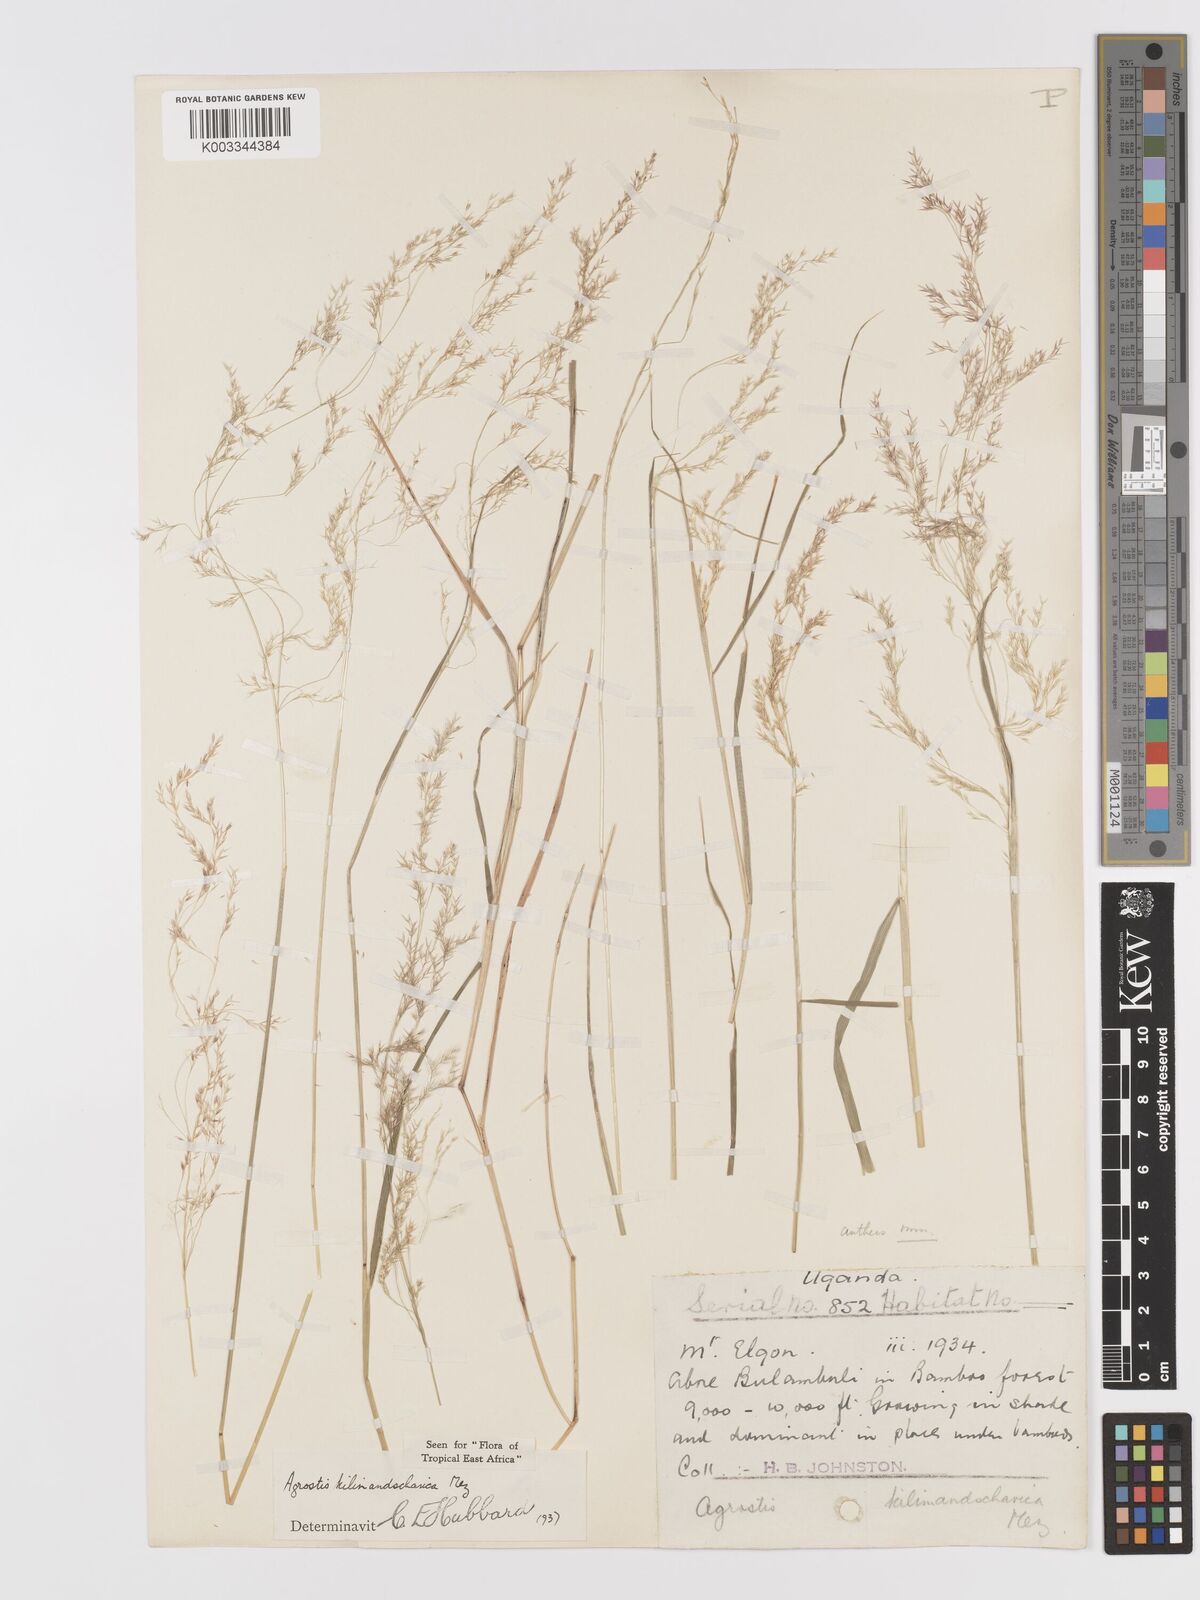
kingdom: Plantae
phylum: Tracheophyta
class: Liliopsida
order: Poales
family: Poaceae
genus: Agrostis
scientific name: Agrostis kilimandscharica
